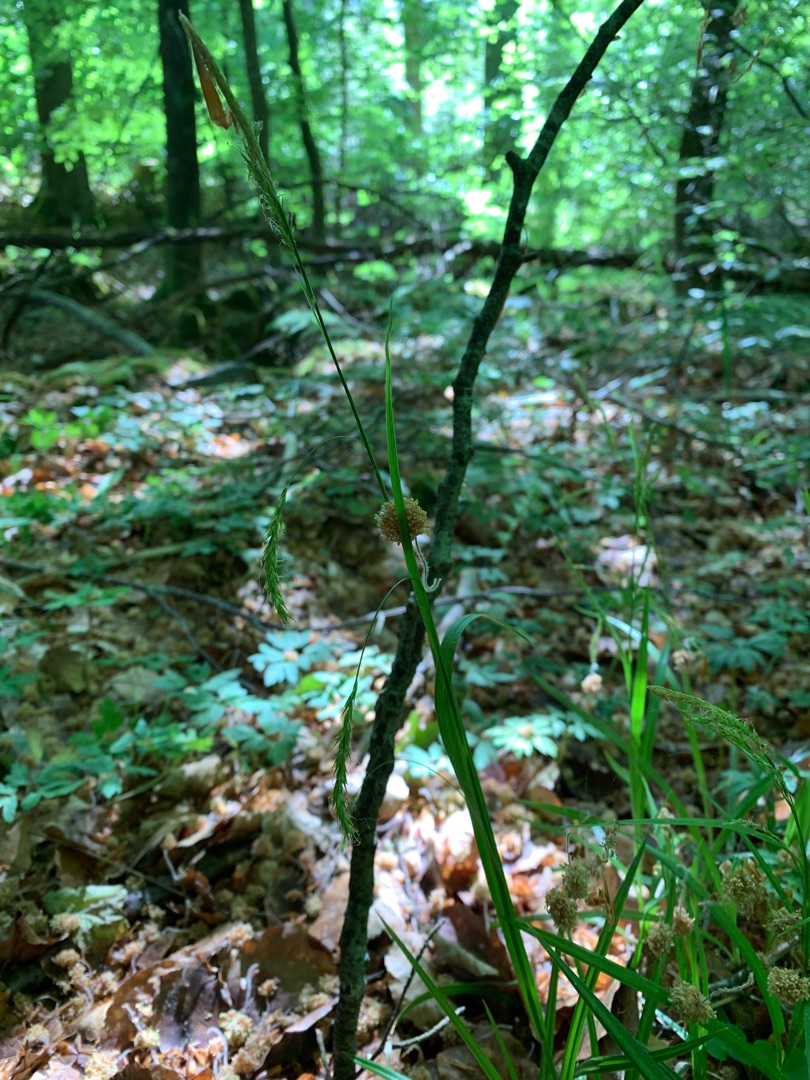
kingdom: Plantae
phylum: Tracheophyta
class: Liliopsida
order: Poales
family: Cyperaceae
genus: Carex
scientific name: Carex sylvatica
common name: Skov-star
